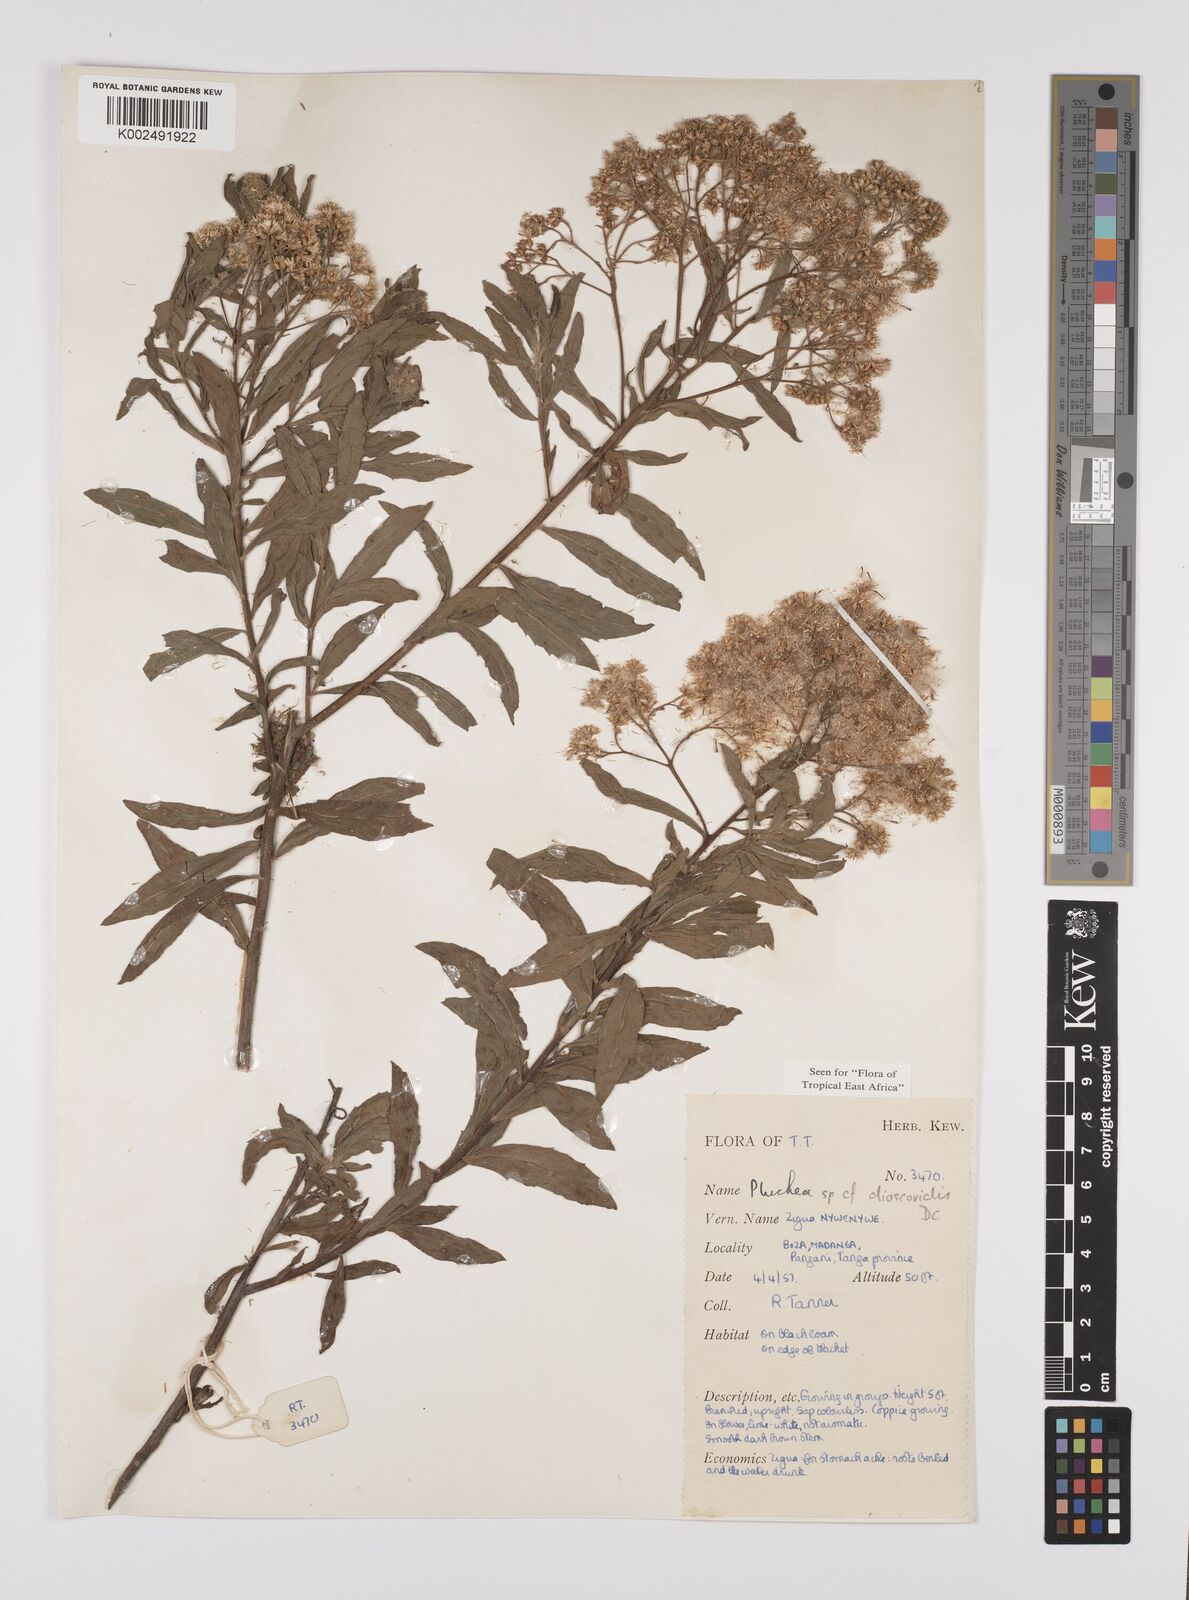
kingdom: Plantae
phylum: Tracheophyta
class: Magnoliopsida
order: Asterales
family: Asteraceae
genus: Pluchea
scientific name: Pluchea dioscoridis
